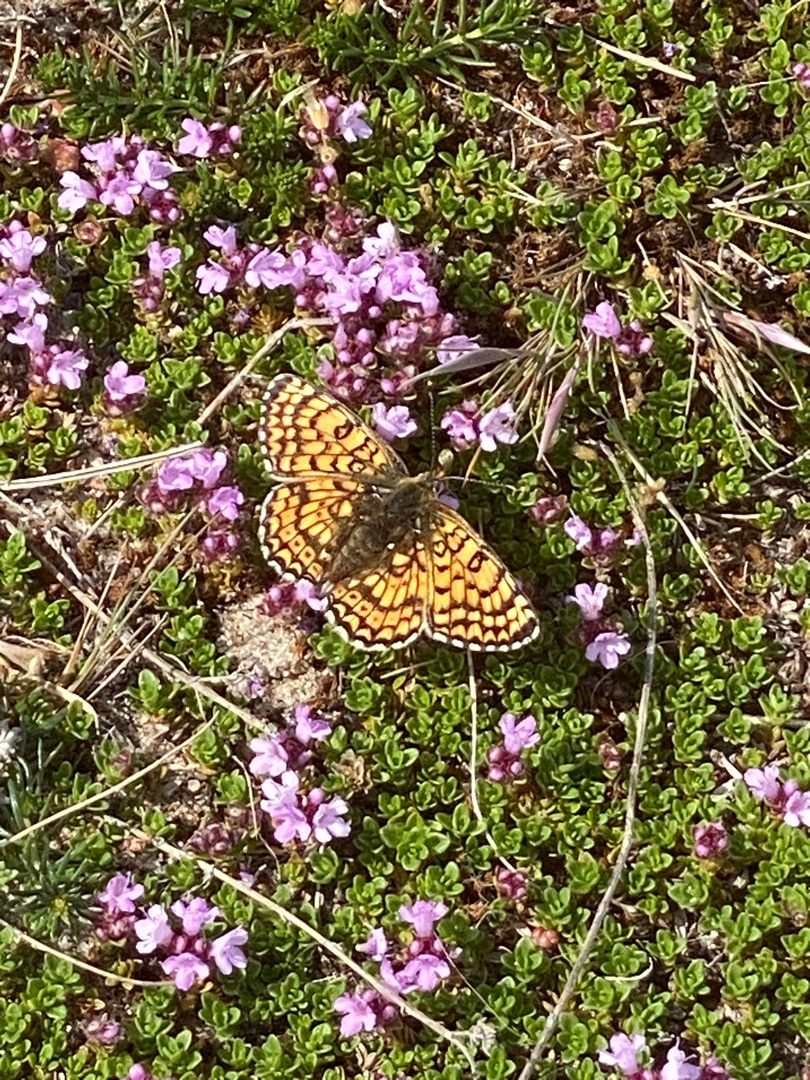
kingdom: Animalia
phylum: Arthropoda
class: Insecta
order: Lepidoptera
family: Nymphalidae
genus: Melitaea
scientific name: Melitaea cinxia
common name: Okkergul pletvinge
